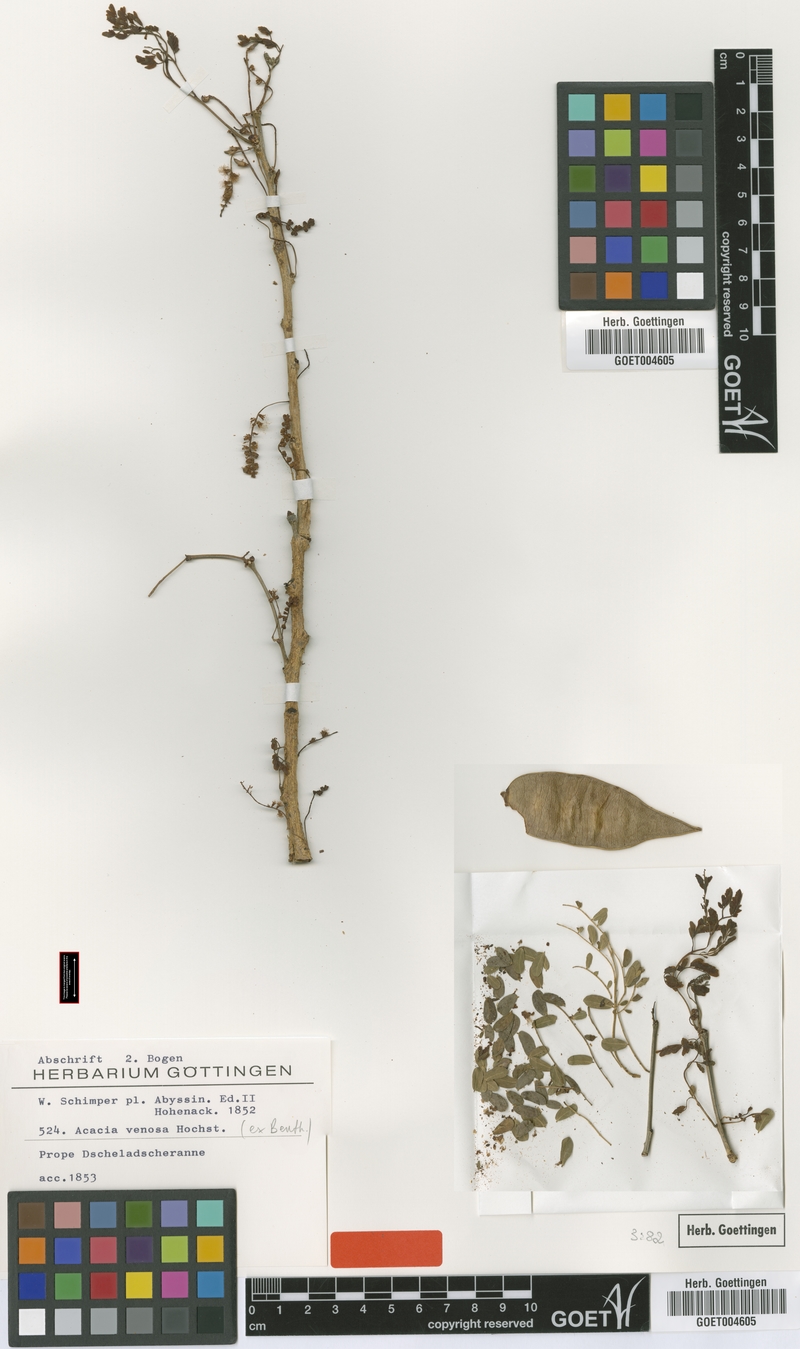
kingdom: Plantae
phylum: Tracheophyta
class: Magnoliopsida
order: Fabales
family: Fabaceae
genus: Senegalia
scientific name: Senegalia venosa
